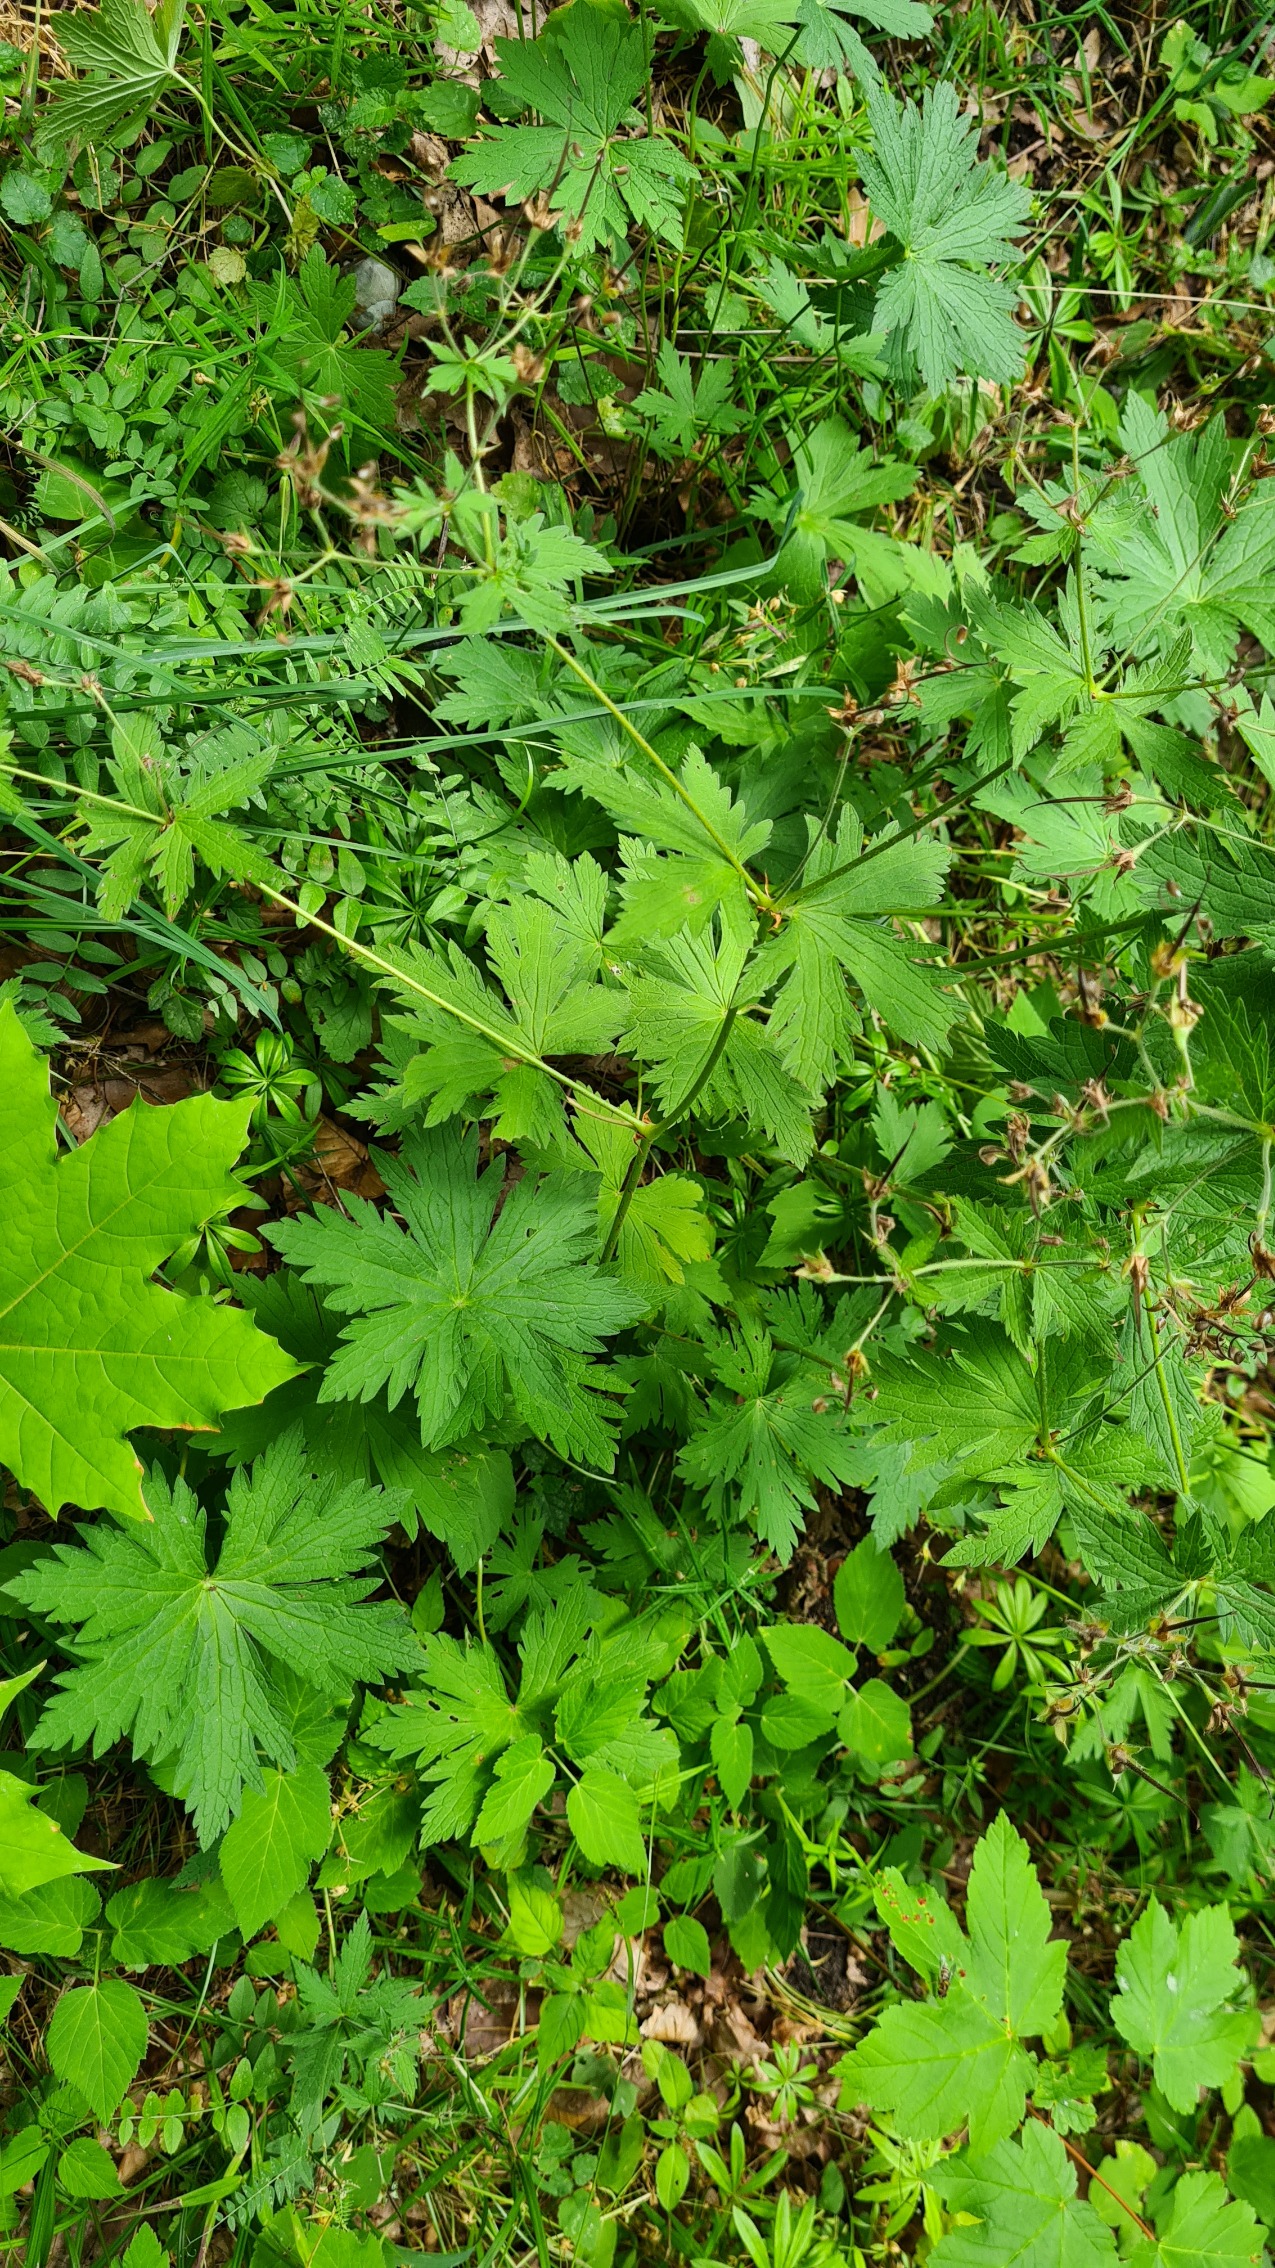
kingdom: Plantae
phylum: Tracheophyta
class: Magnoliopsida
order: Geraniales
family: Geraniaceae
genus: Geranium
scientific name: Geranium sylvaticum
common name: Skov-storkenæb
